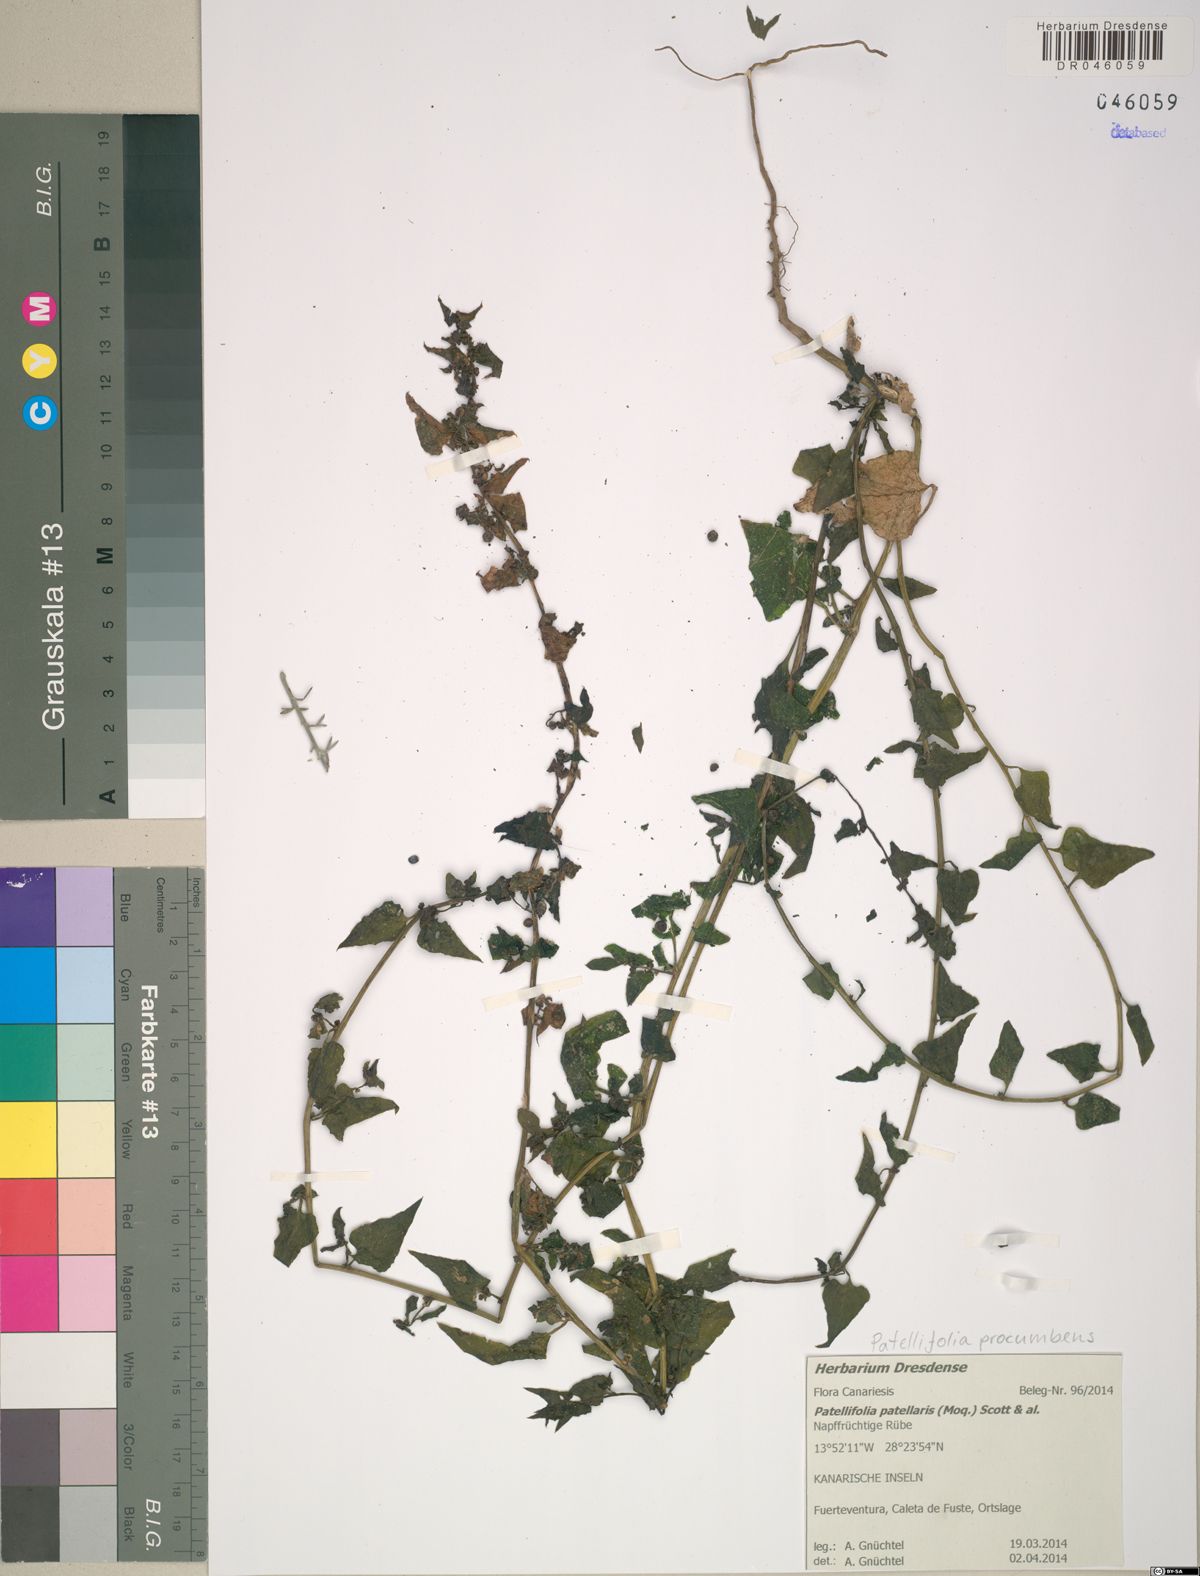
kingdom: Plantae
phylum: Tracheophyta
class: Magnoliopsida
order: Caryophyllales
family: Amaranthaceae
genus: Patellifolia
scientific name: Patellifolia procumbens
